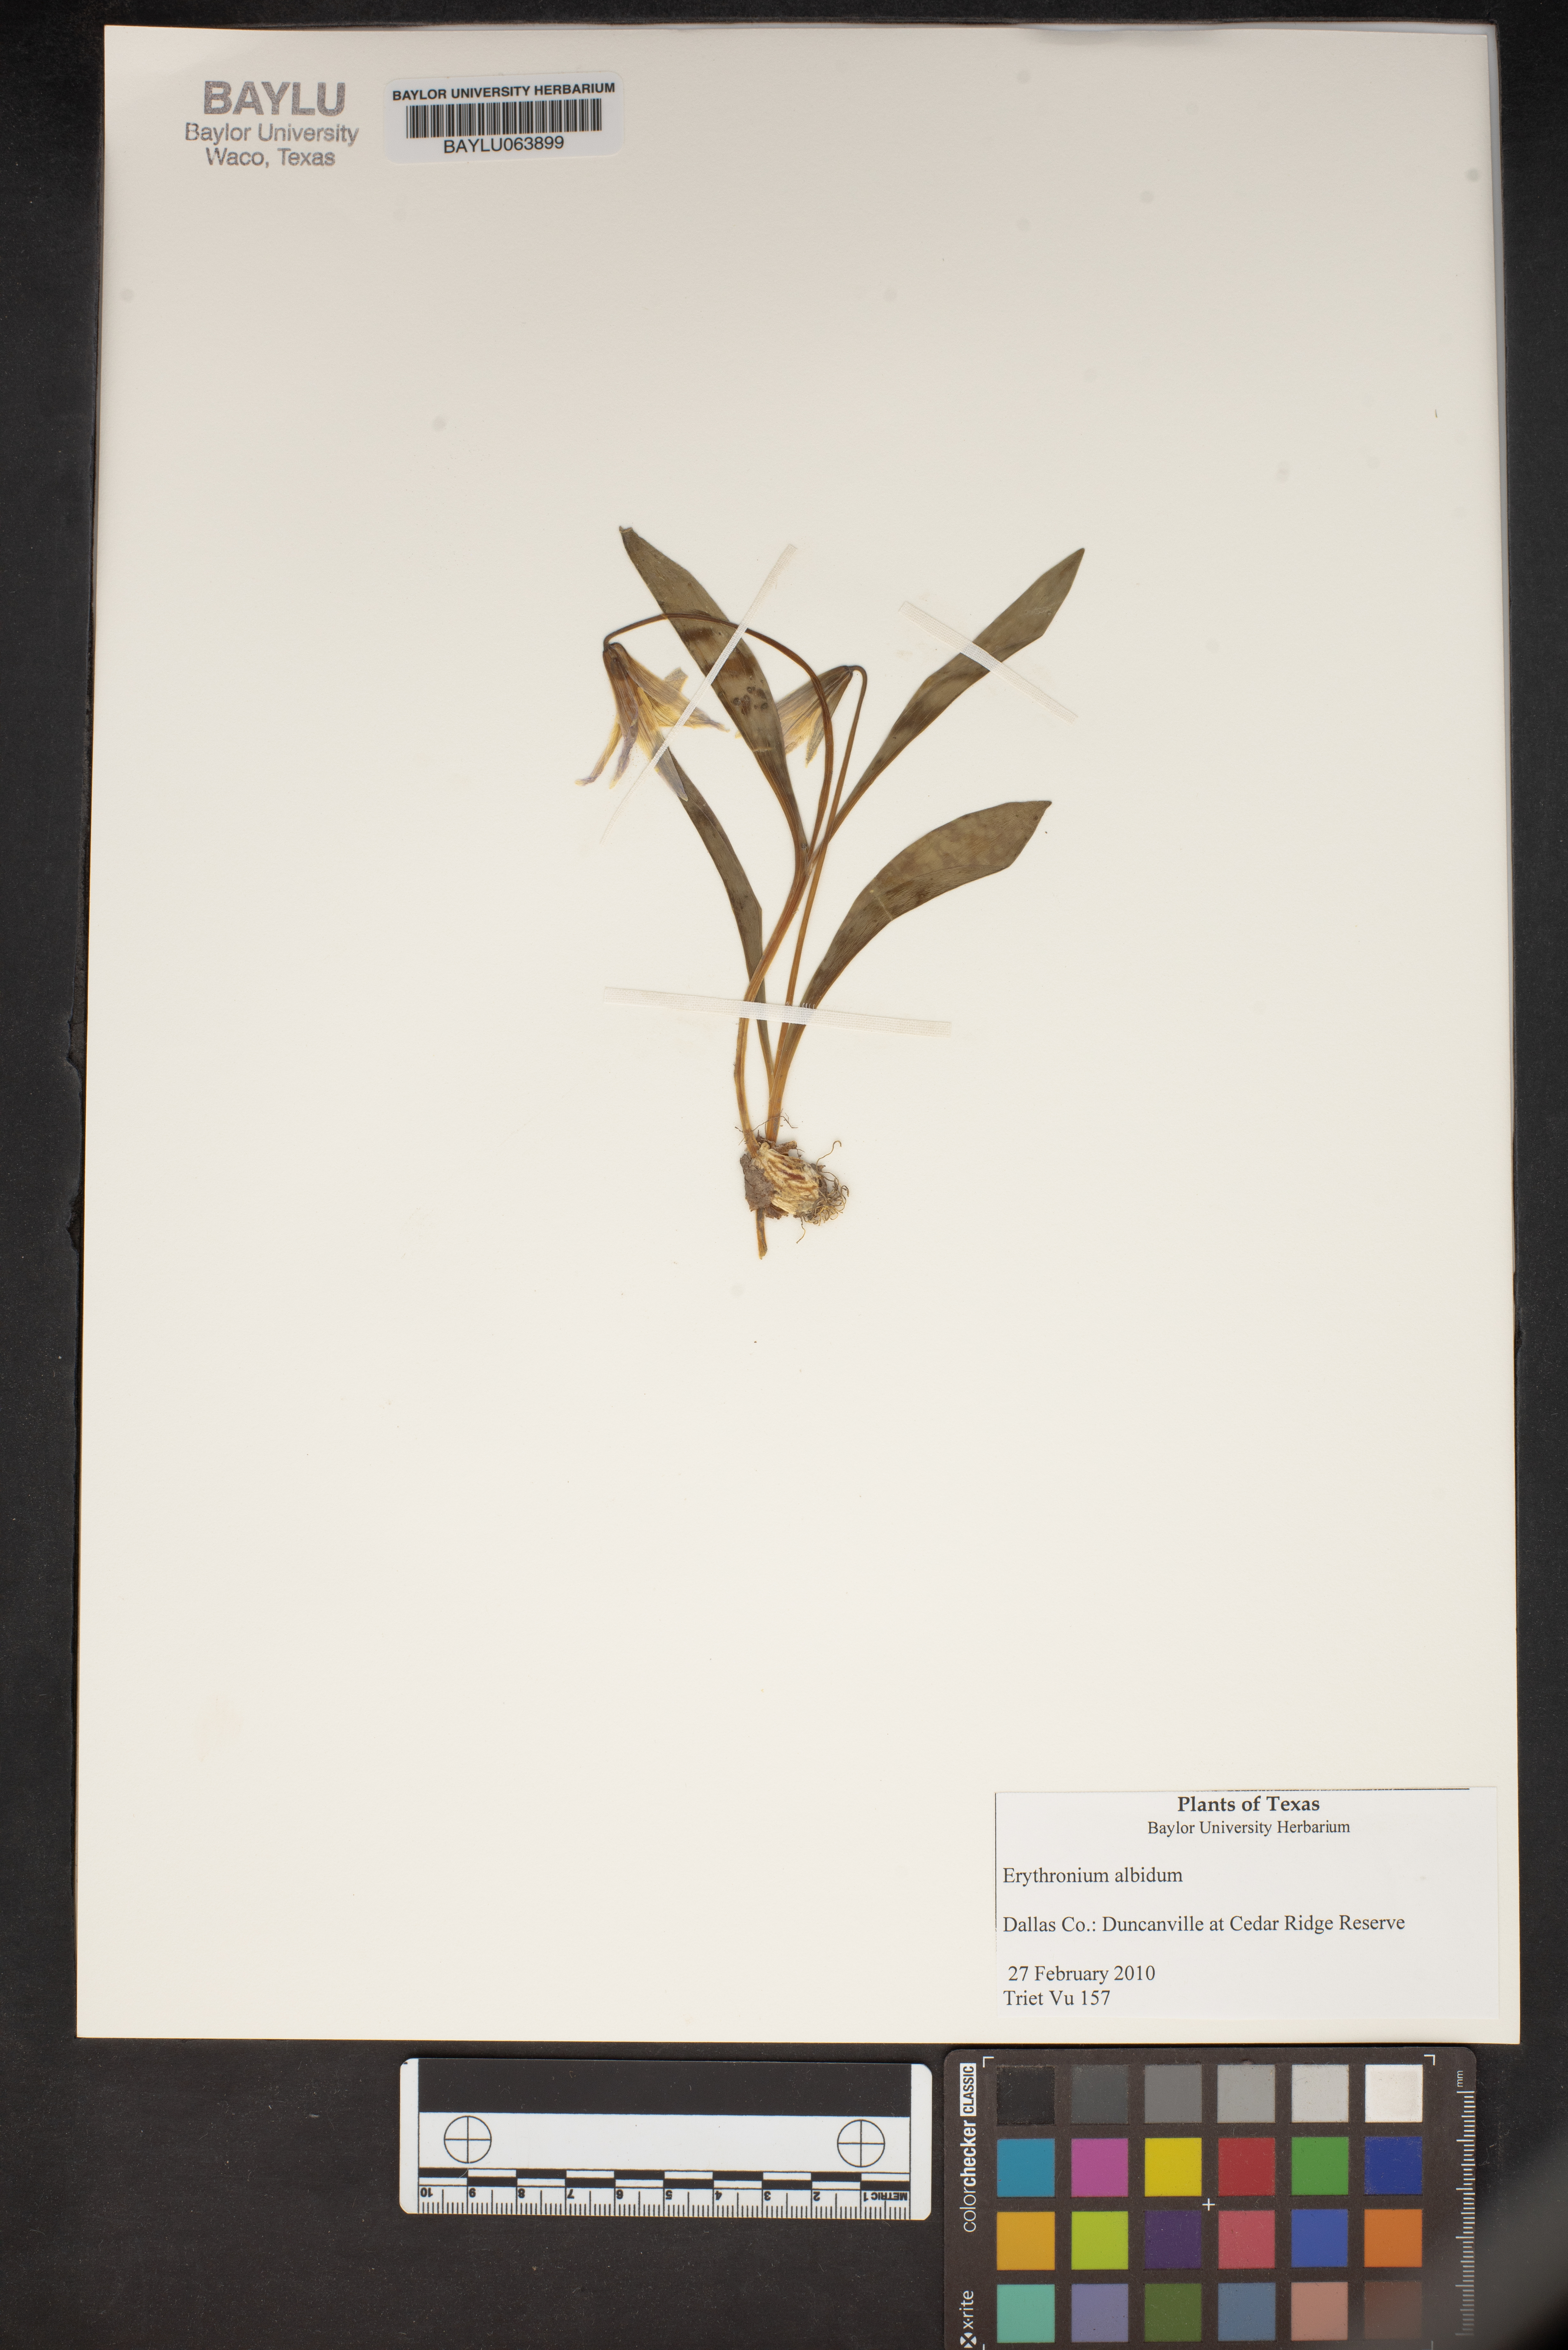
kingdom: Plantae
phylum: Tracheophyta
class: Liliopsida
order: Liliales
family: Liliaceae
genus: Erythronium
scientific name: Erythronium albidum
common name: White trout-lily
